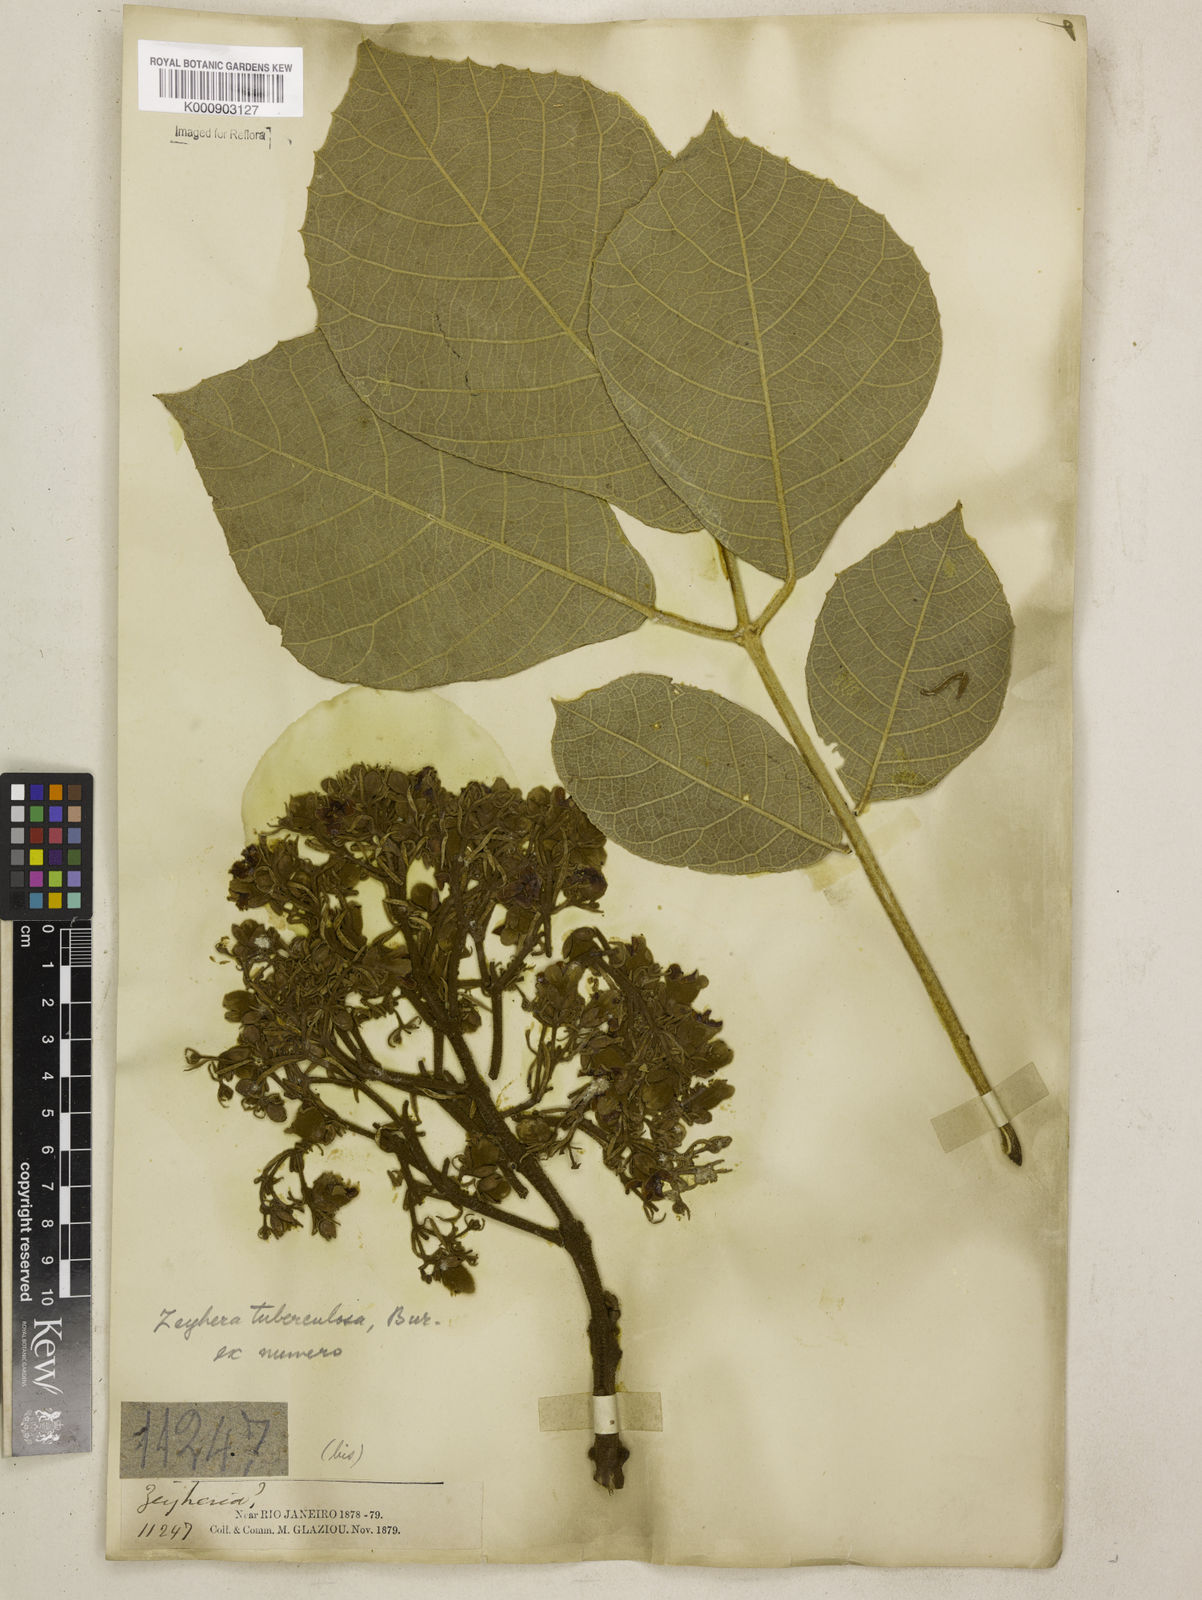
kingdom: Plantae
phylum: Tracheophyta
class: Magnoliopsida
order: Lamiales
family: Bignoniaceae
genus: Zeyheria
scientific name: Zeyheria
